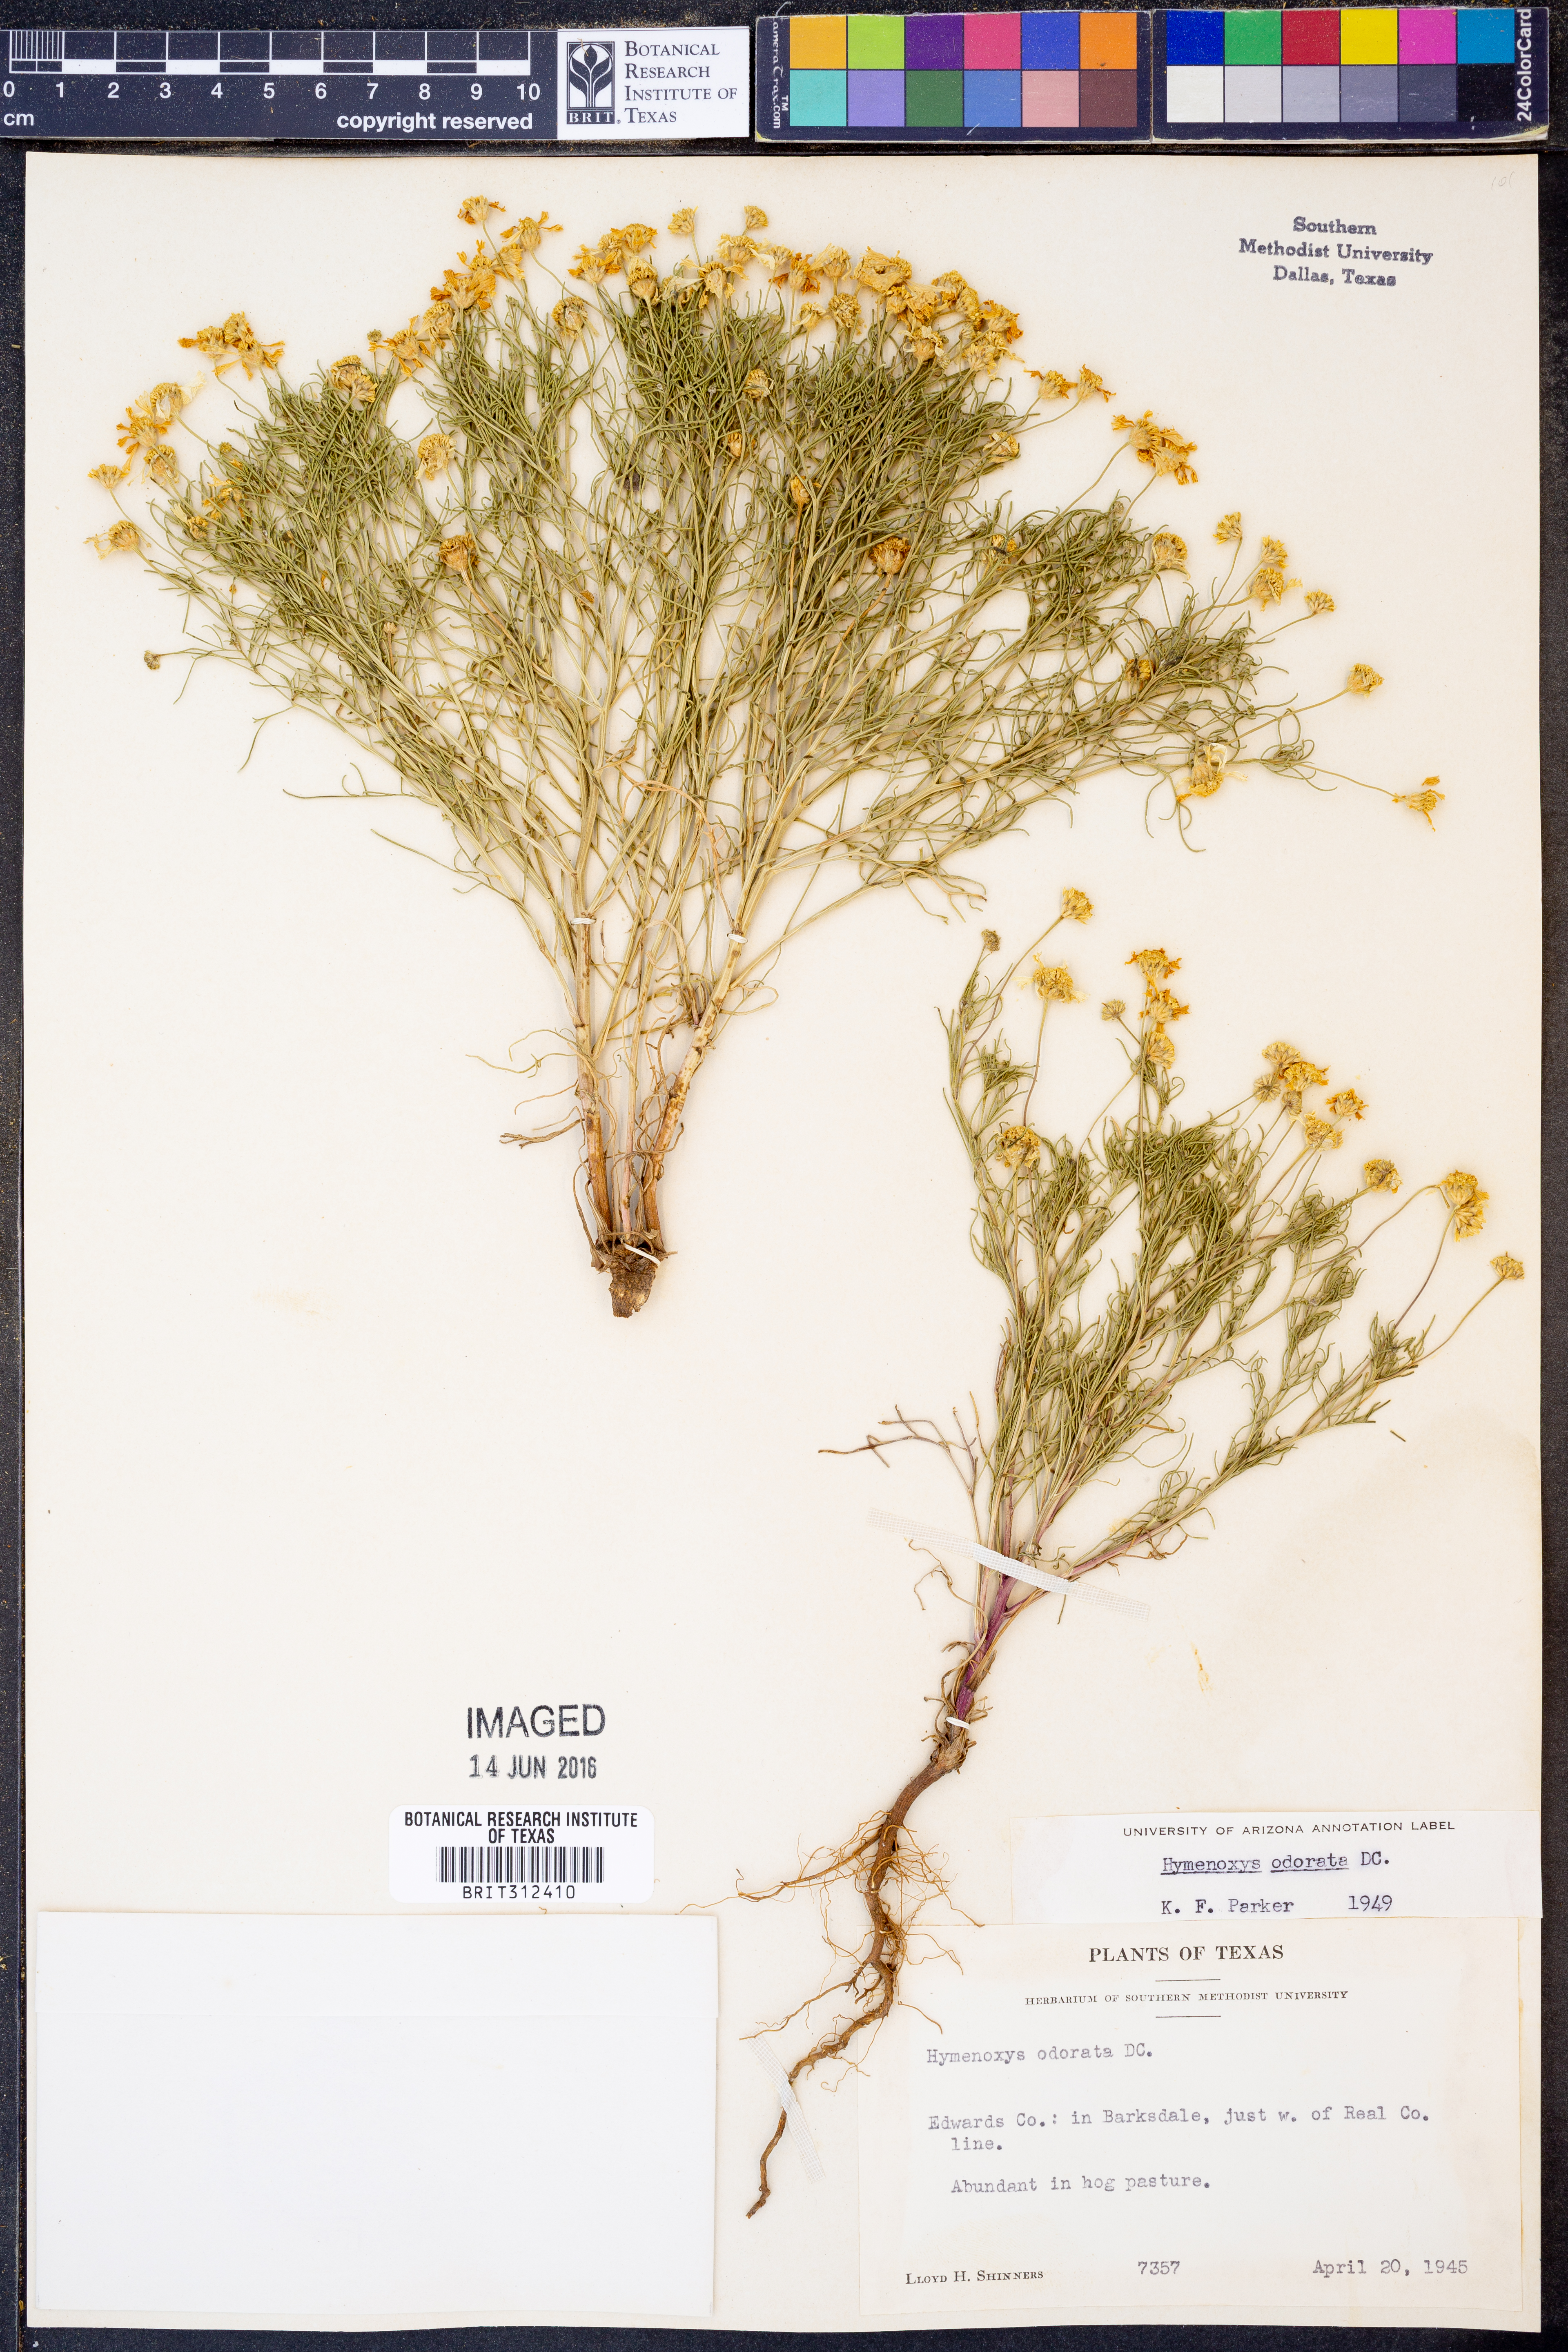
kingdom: Plantae
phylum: Tracheophyta
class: Magnoliopsida
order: Asterales
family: Asteraceae
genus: Hymenoxys
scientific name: Hymenoxys odorata
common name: Bitter rubberweed
